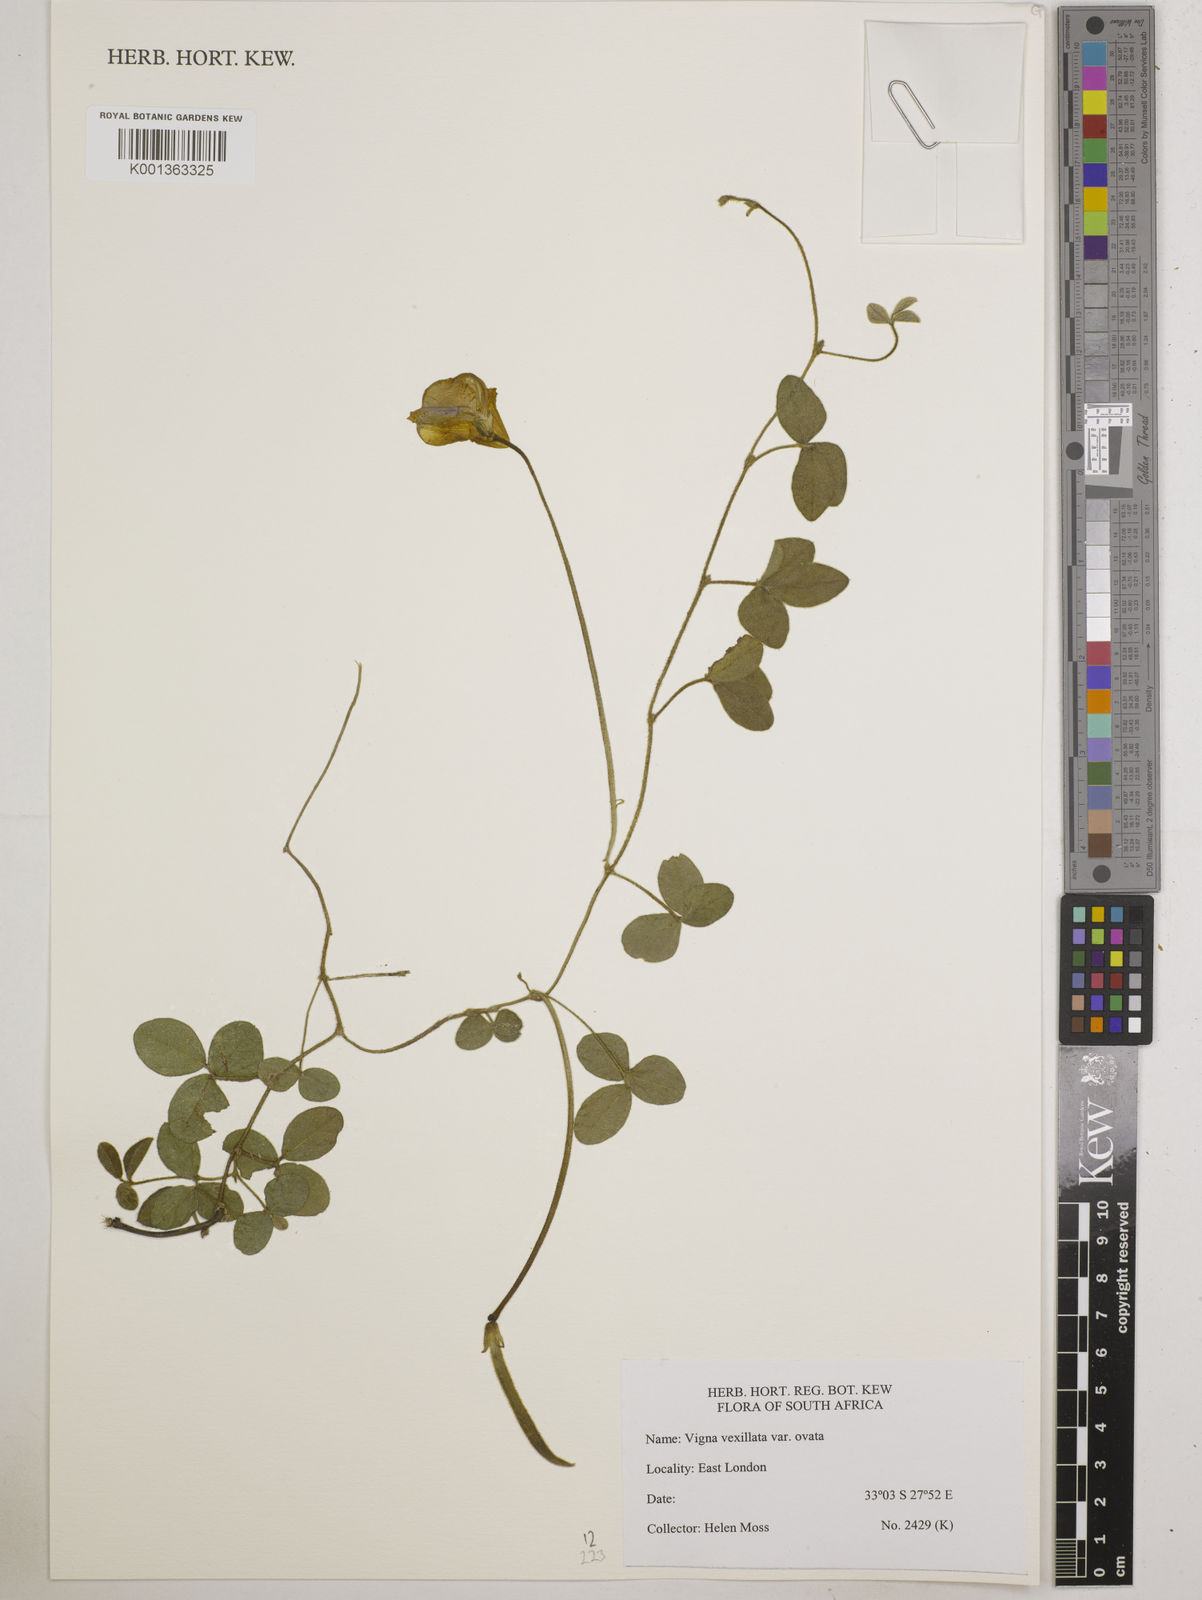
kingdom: Plantae
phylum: Tracheophyta
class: Magnoliopsida
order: Fabales
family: Fabaceae
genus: Vigna
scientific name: Vigna
